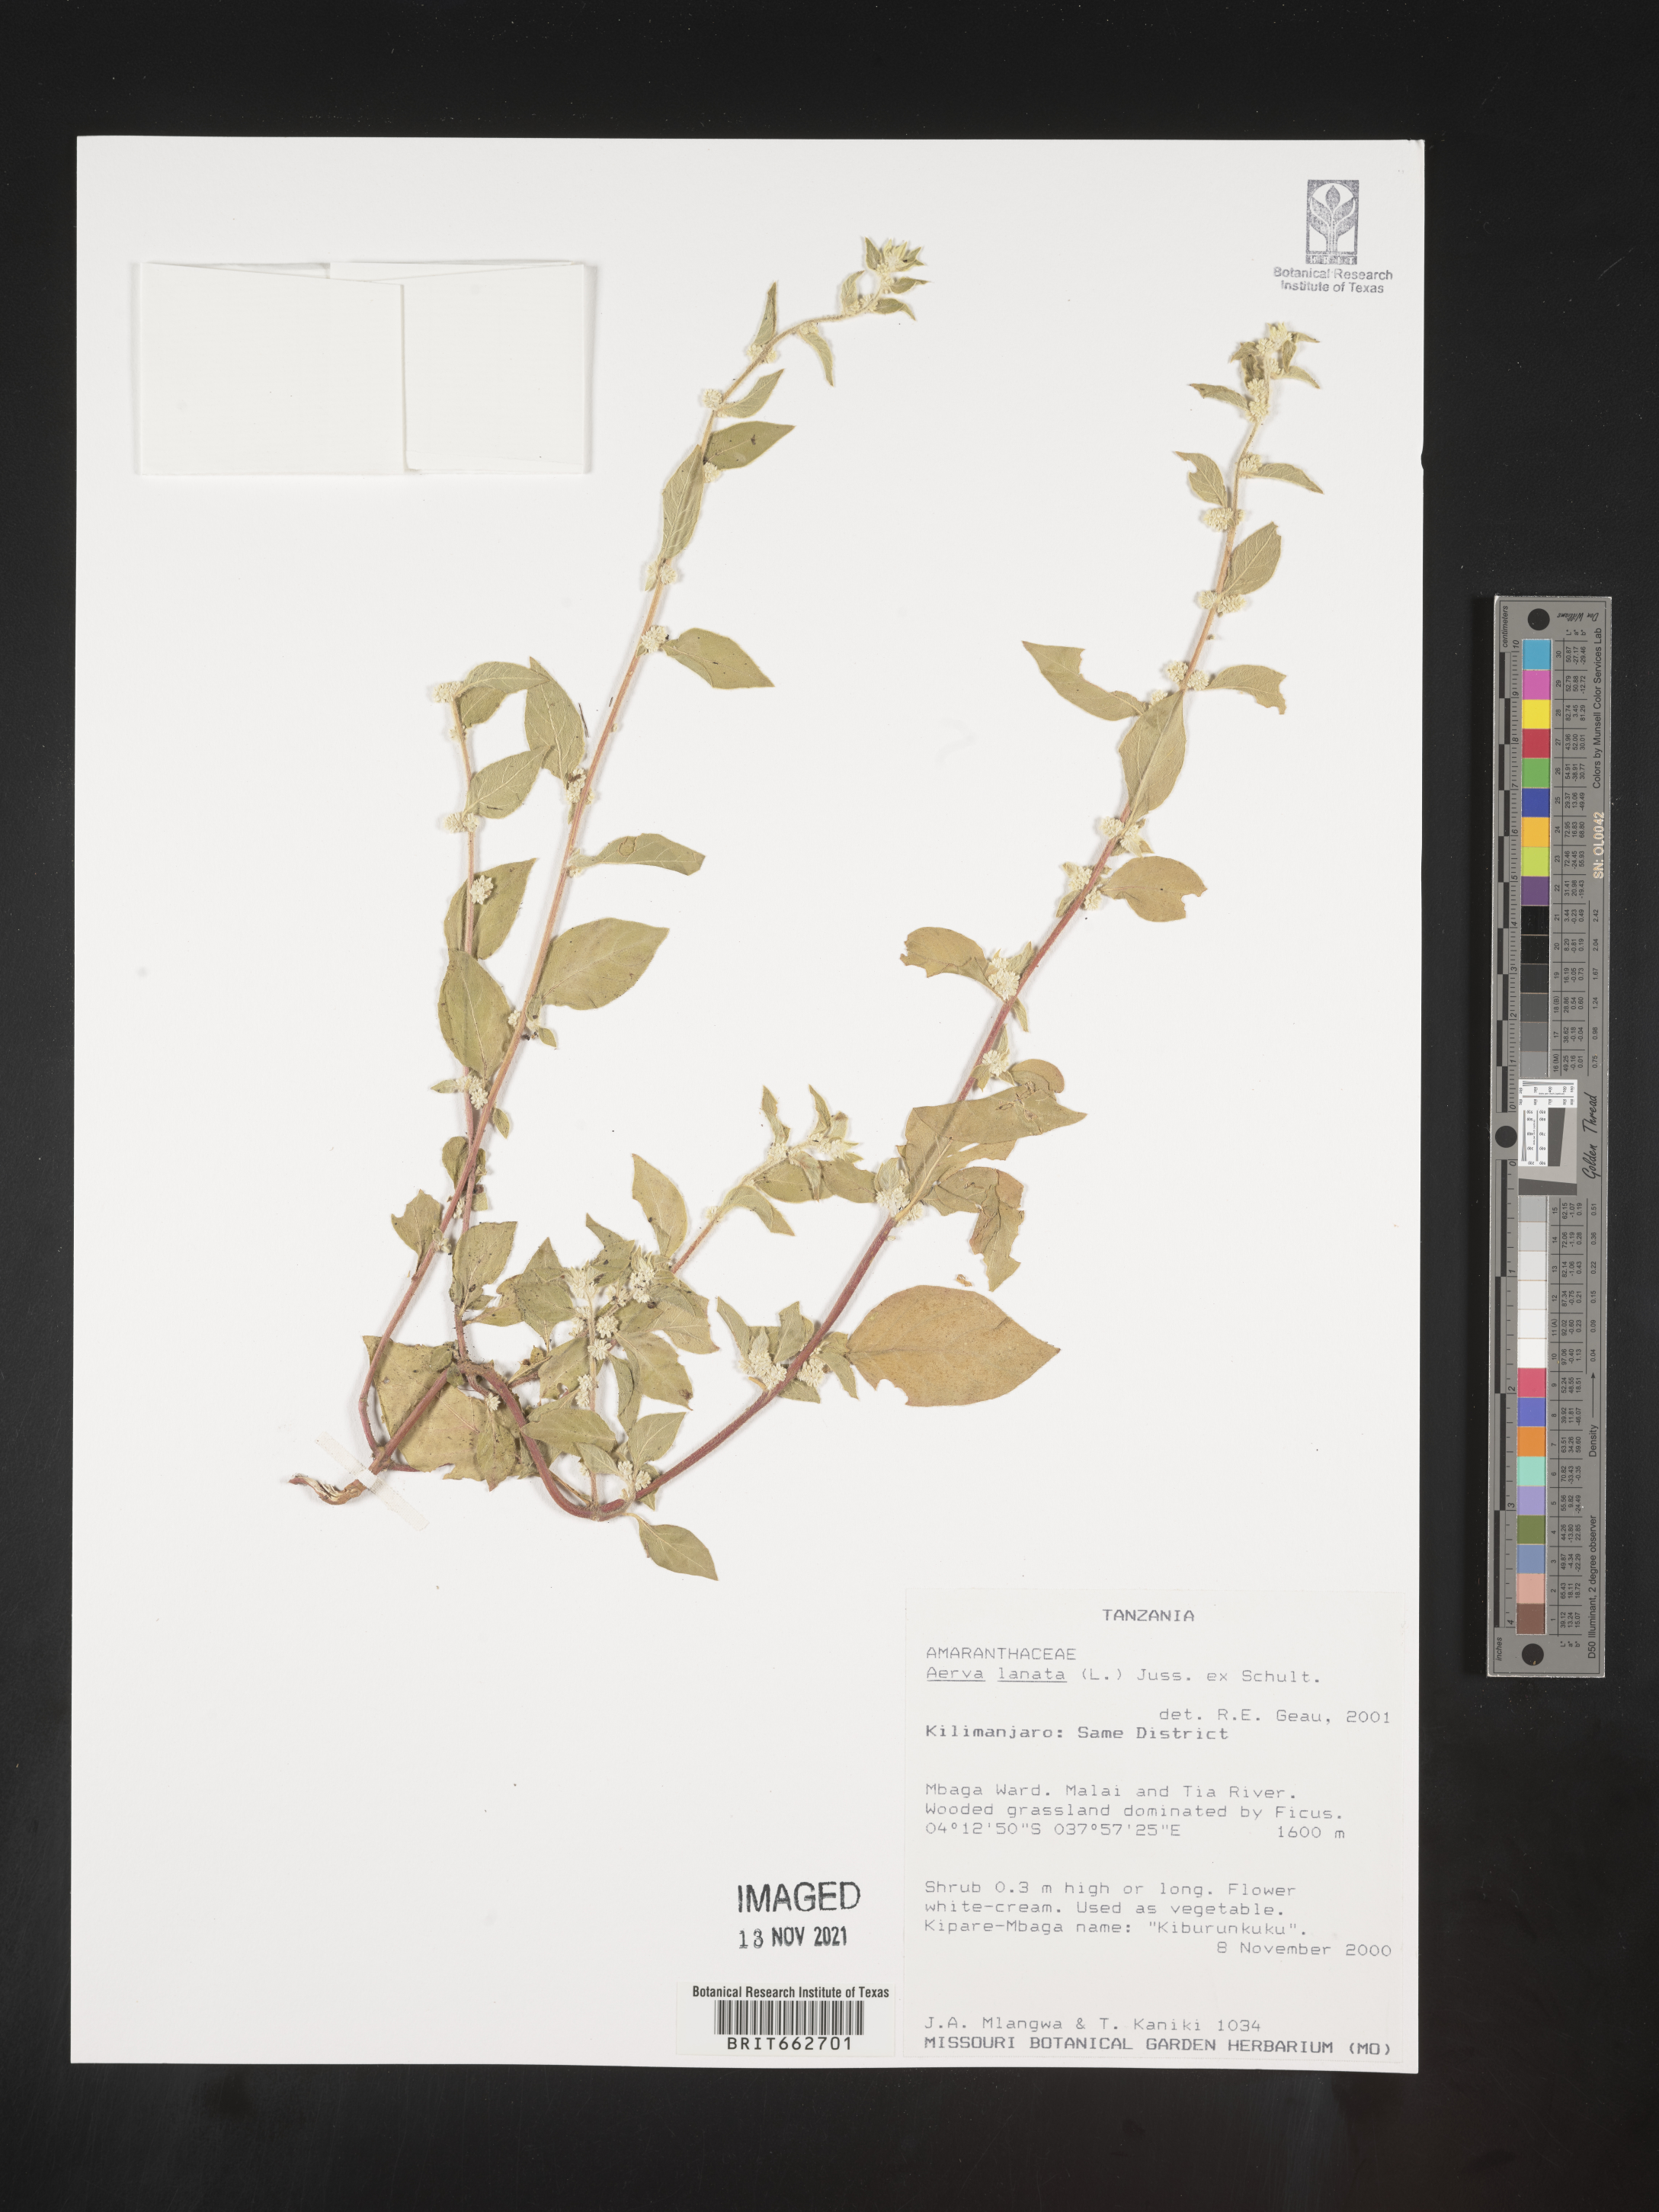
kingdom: Plantae
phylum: Tracheophyta
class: Magnoliopsida
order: Caryophyllales
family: Amaranthaceae
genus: Aerva
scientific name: Aerva
